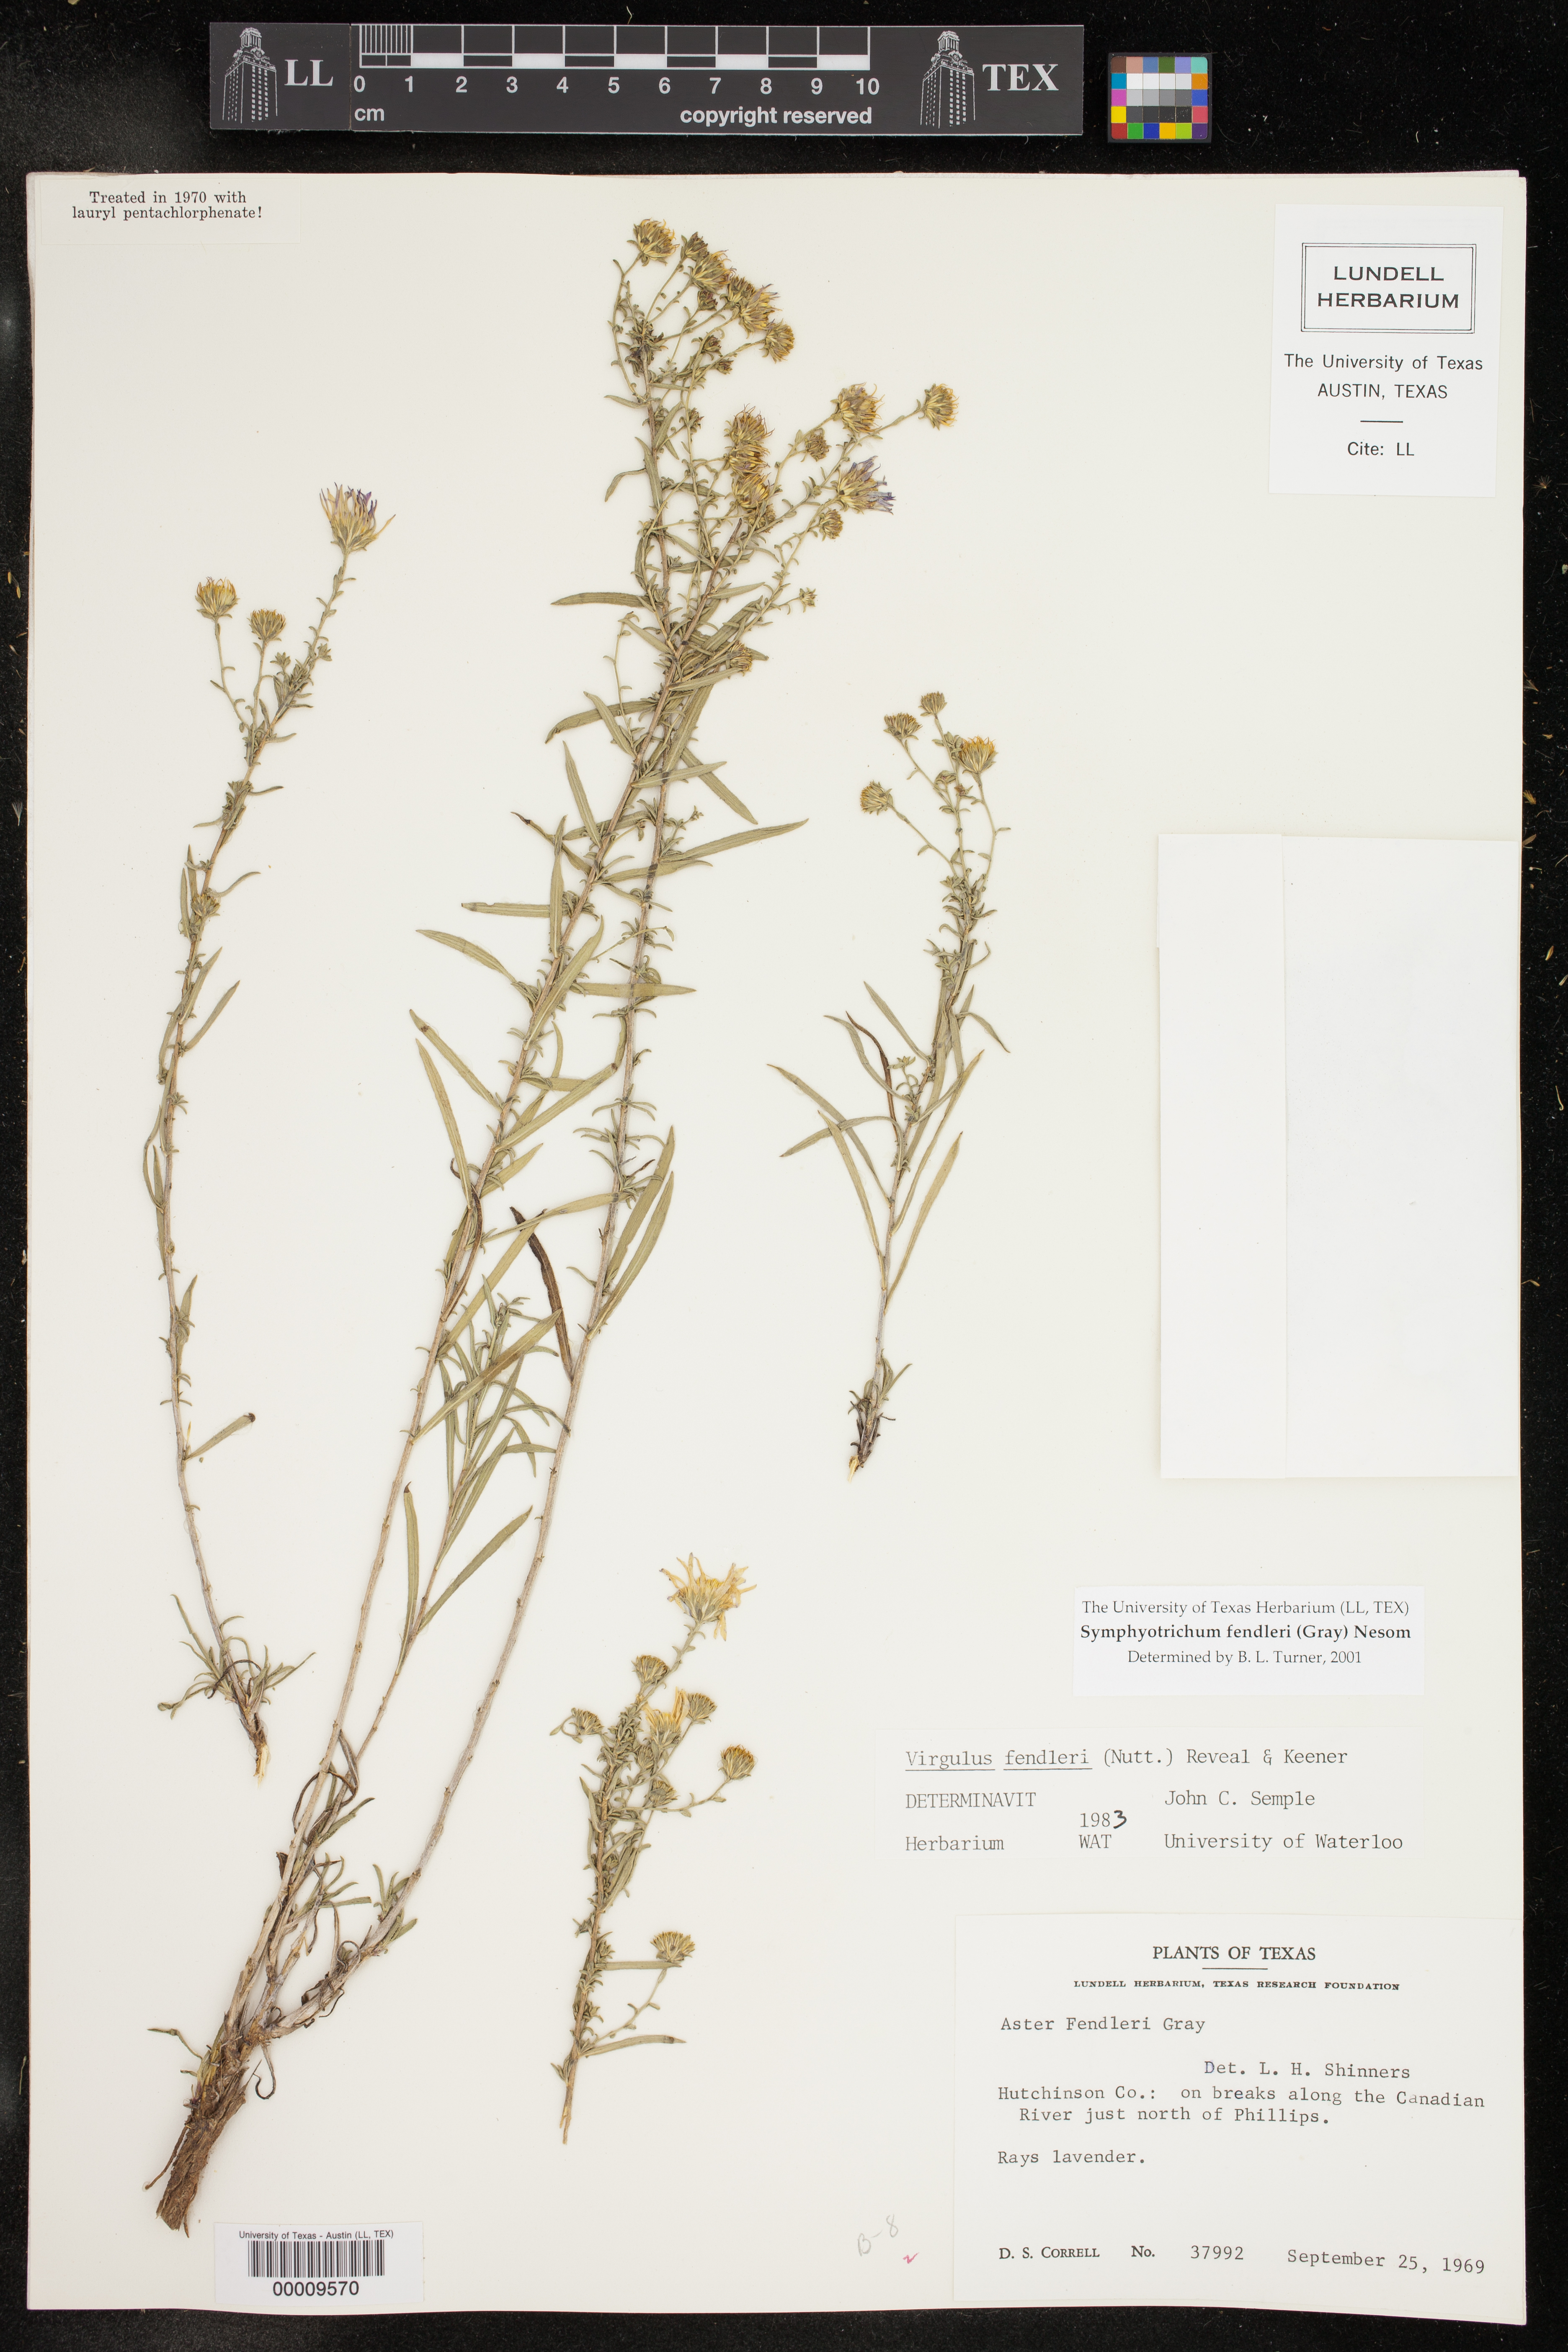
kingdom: Plantae
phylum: Tracheophyta
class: Magnoliopsida
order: Asterales
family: Asteraceae
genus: Symphyotrichum
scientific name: Symphyotrichum fendleri
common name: Fendler's aster
